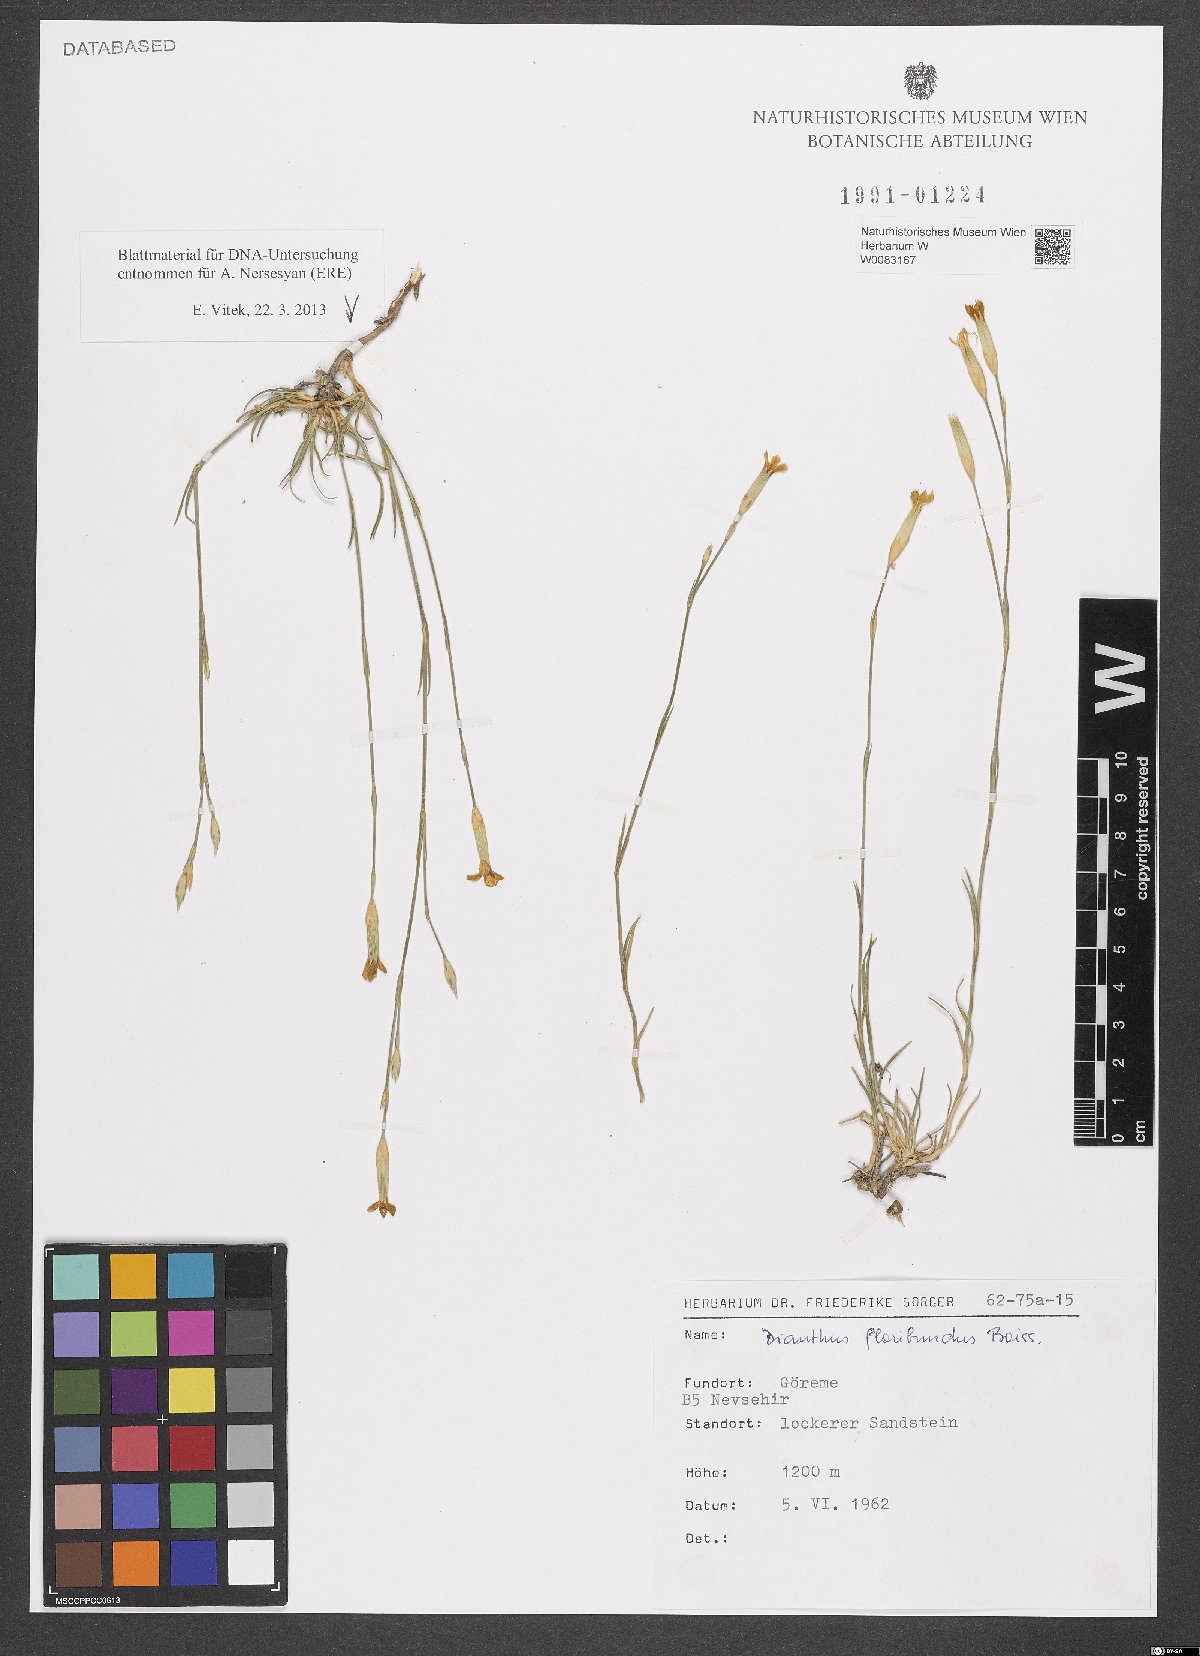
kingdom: Plantae
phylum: Tracheophyta
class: Magnoliopsida
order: Caryophyllales
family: Caryophyllaceae
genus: Dianthus
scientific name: Dianthus floribundus
